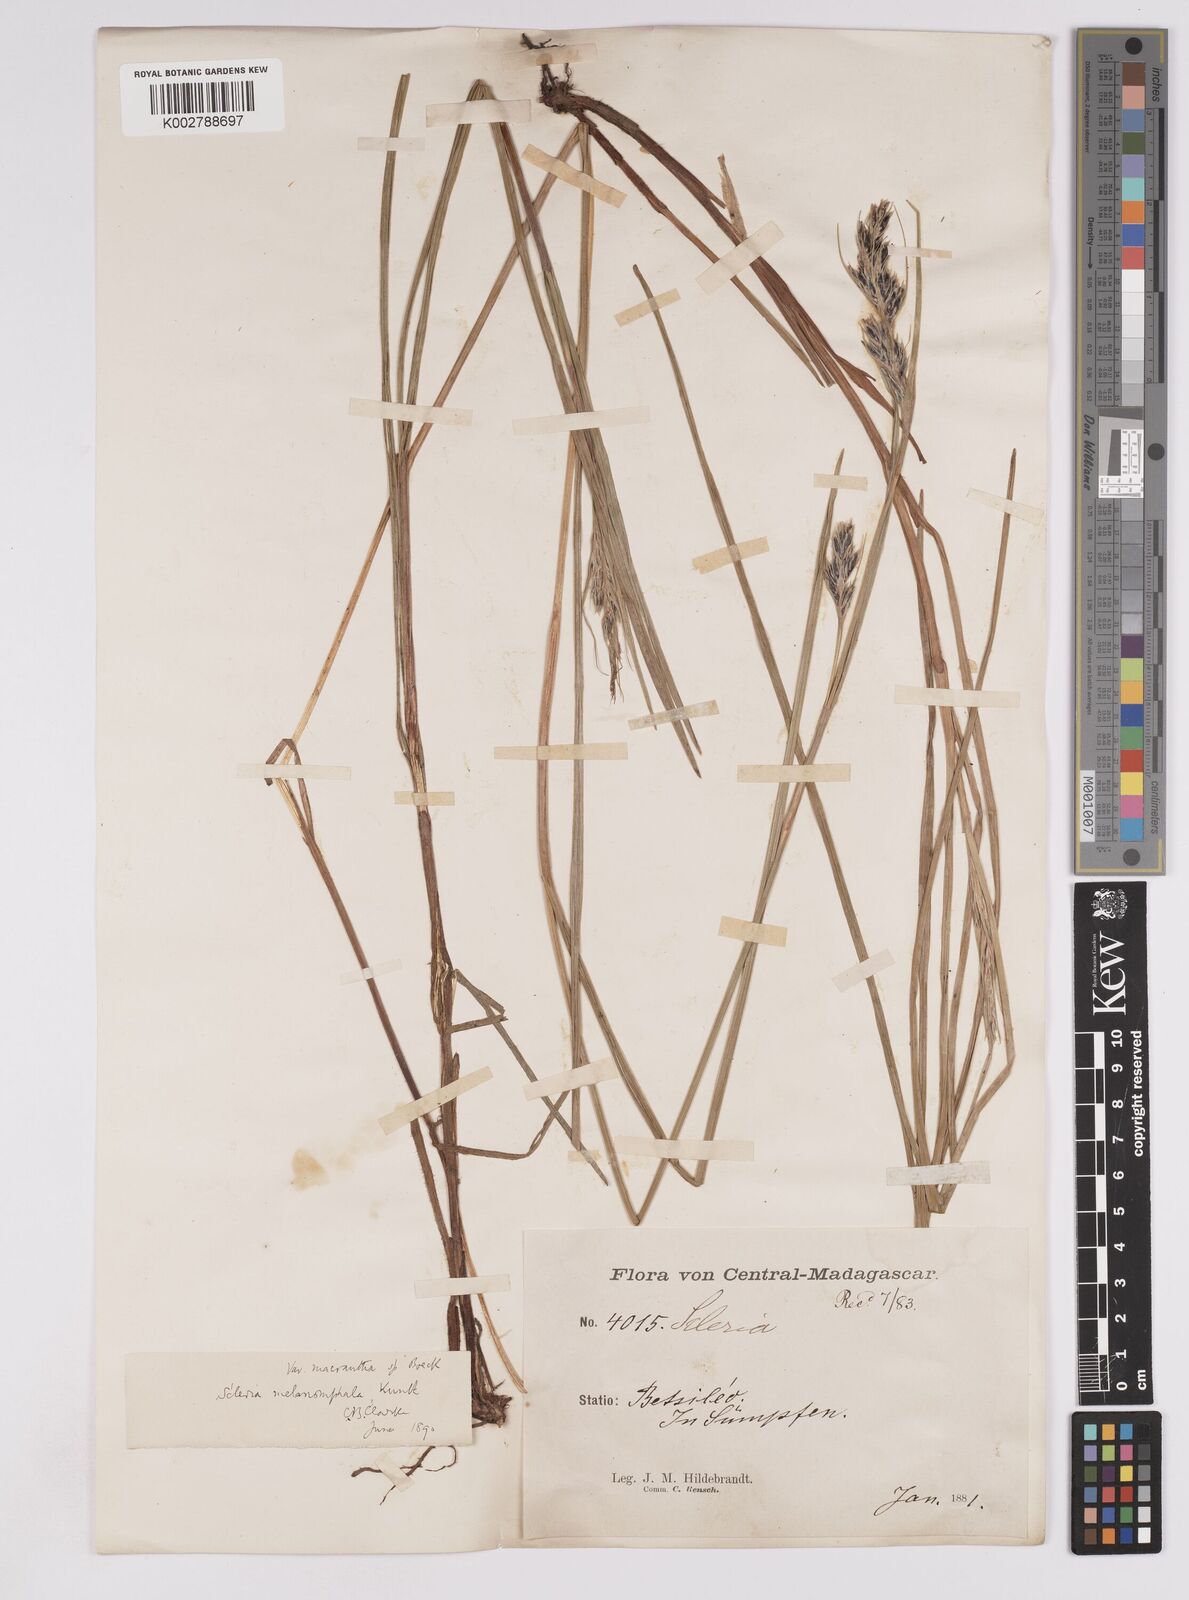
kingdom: Plantae
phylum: Tracheophyta
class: Liliopsida
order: Poales
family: Cyperaceae
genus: Scleria
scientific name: Scleria melanomphala
